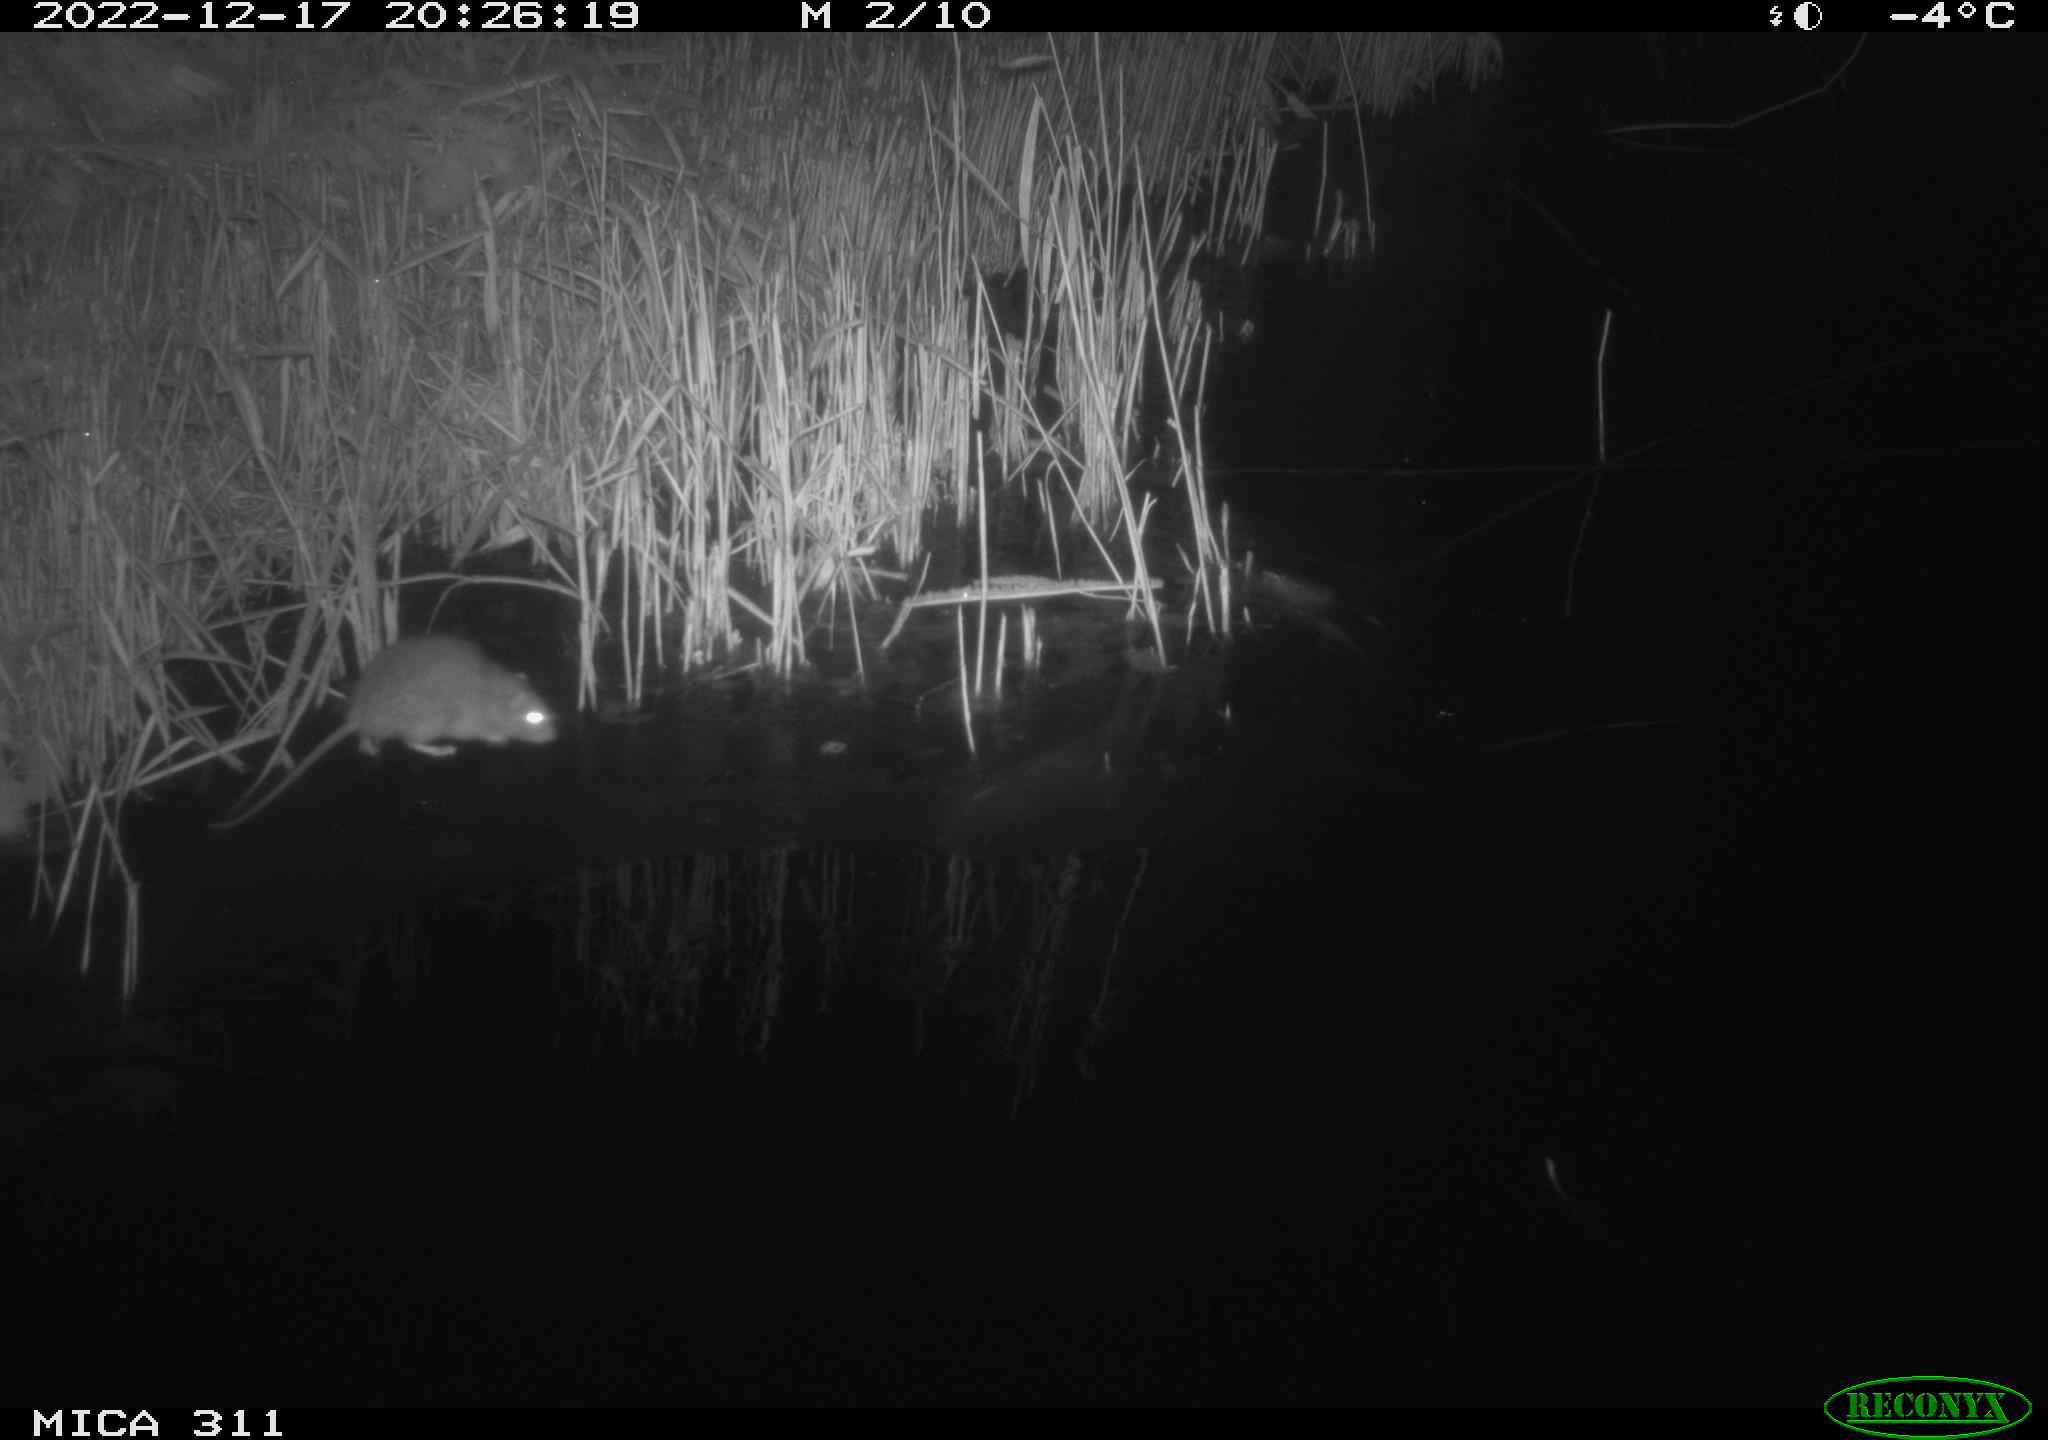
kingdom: Animalia
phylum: Chordata
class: Mammalia
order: Rodentia
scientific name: Rodentia
